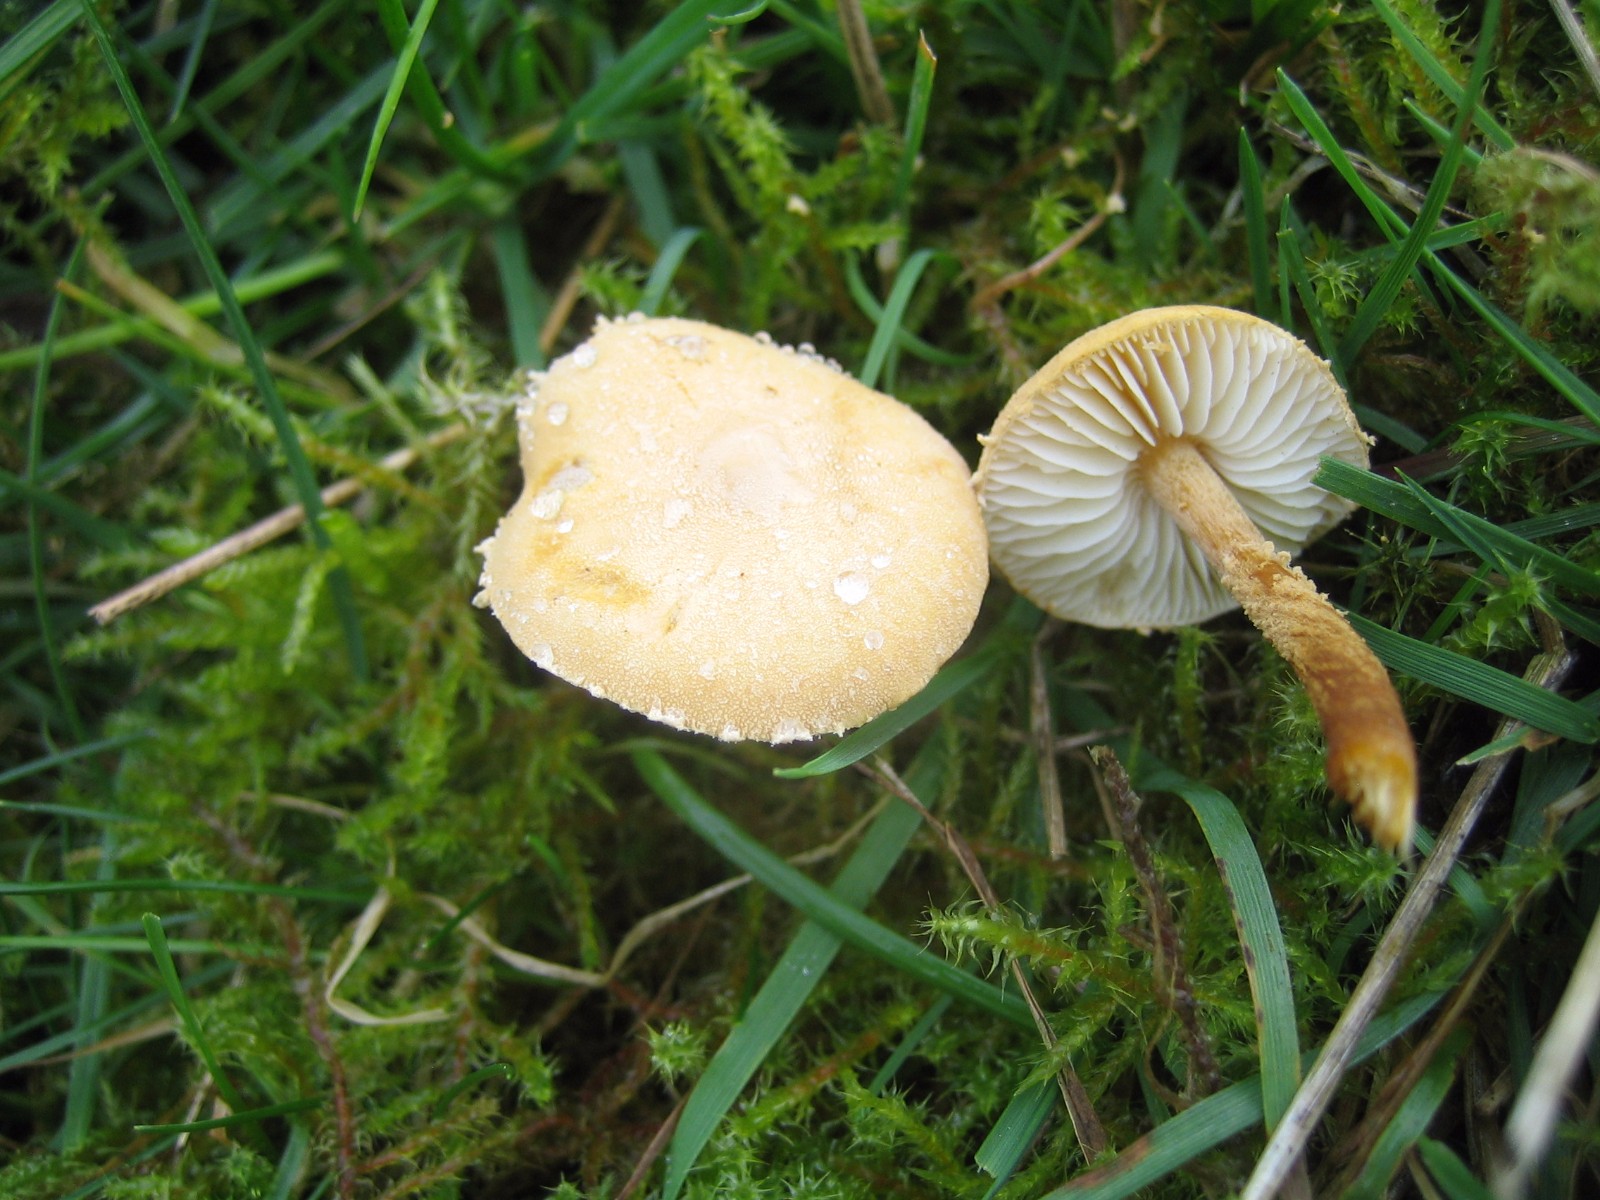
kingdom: Fungi
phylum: Basidiomycota
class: Agaricomycetes
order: Agaricales
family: Tricholomataceae
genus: Cystoderma
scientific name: Cystoderma amianthinum
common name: okkergul grynhat
